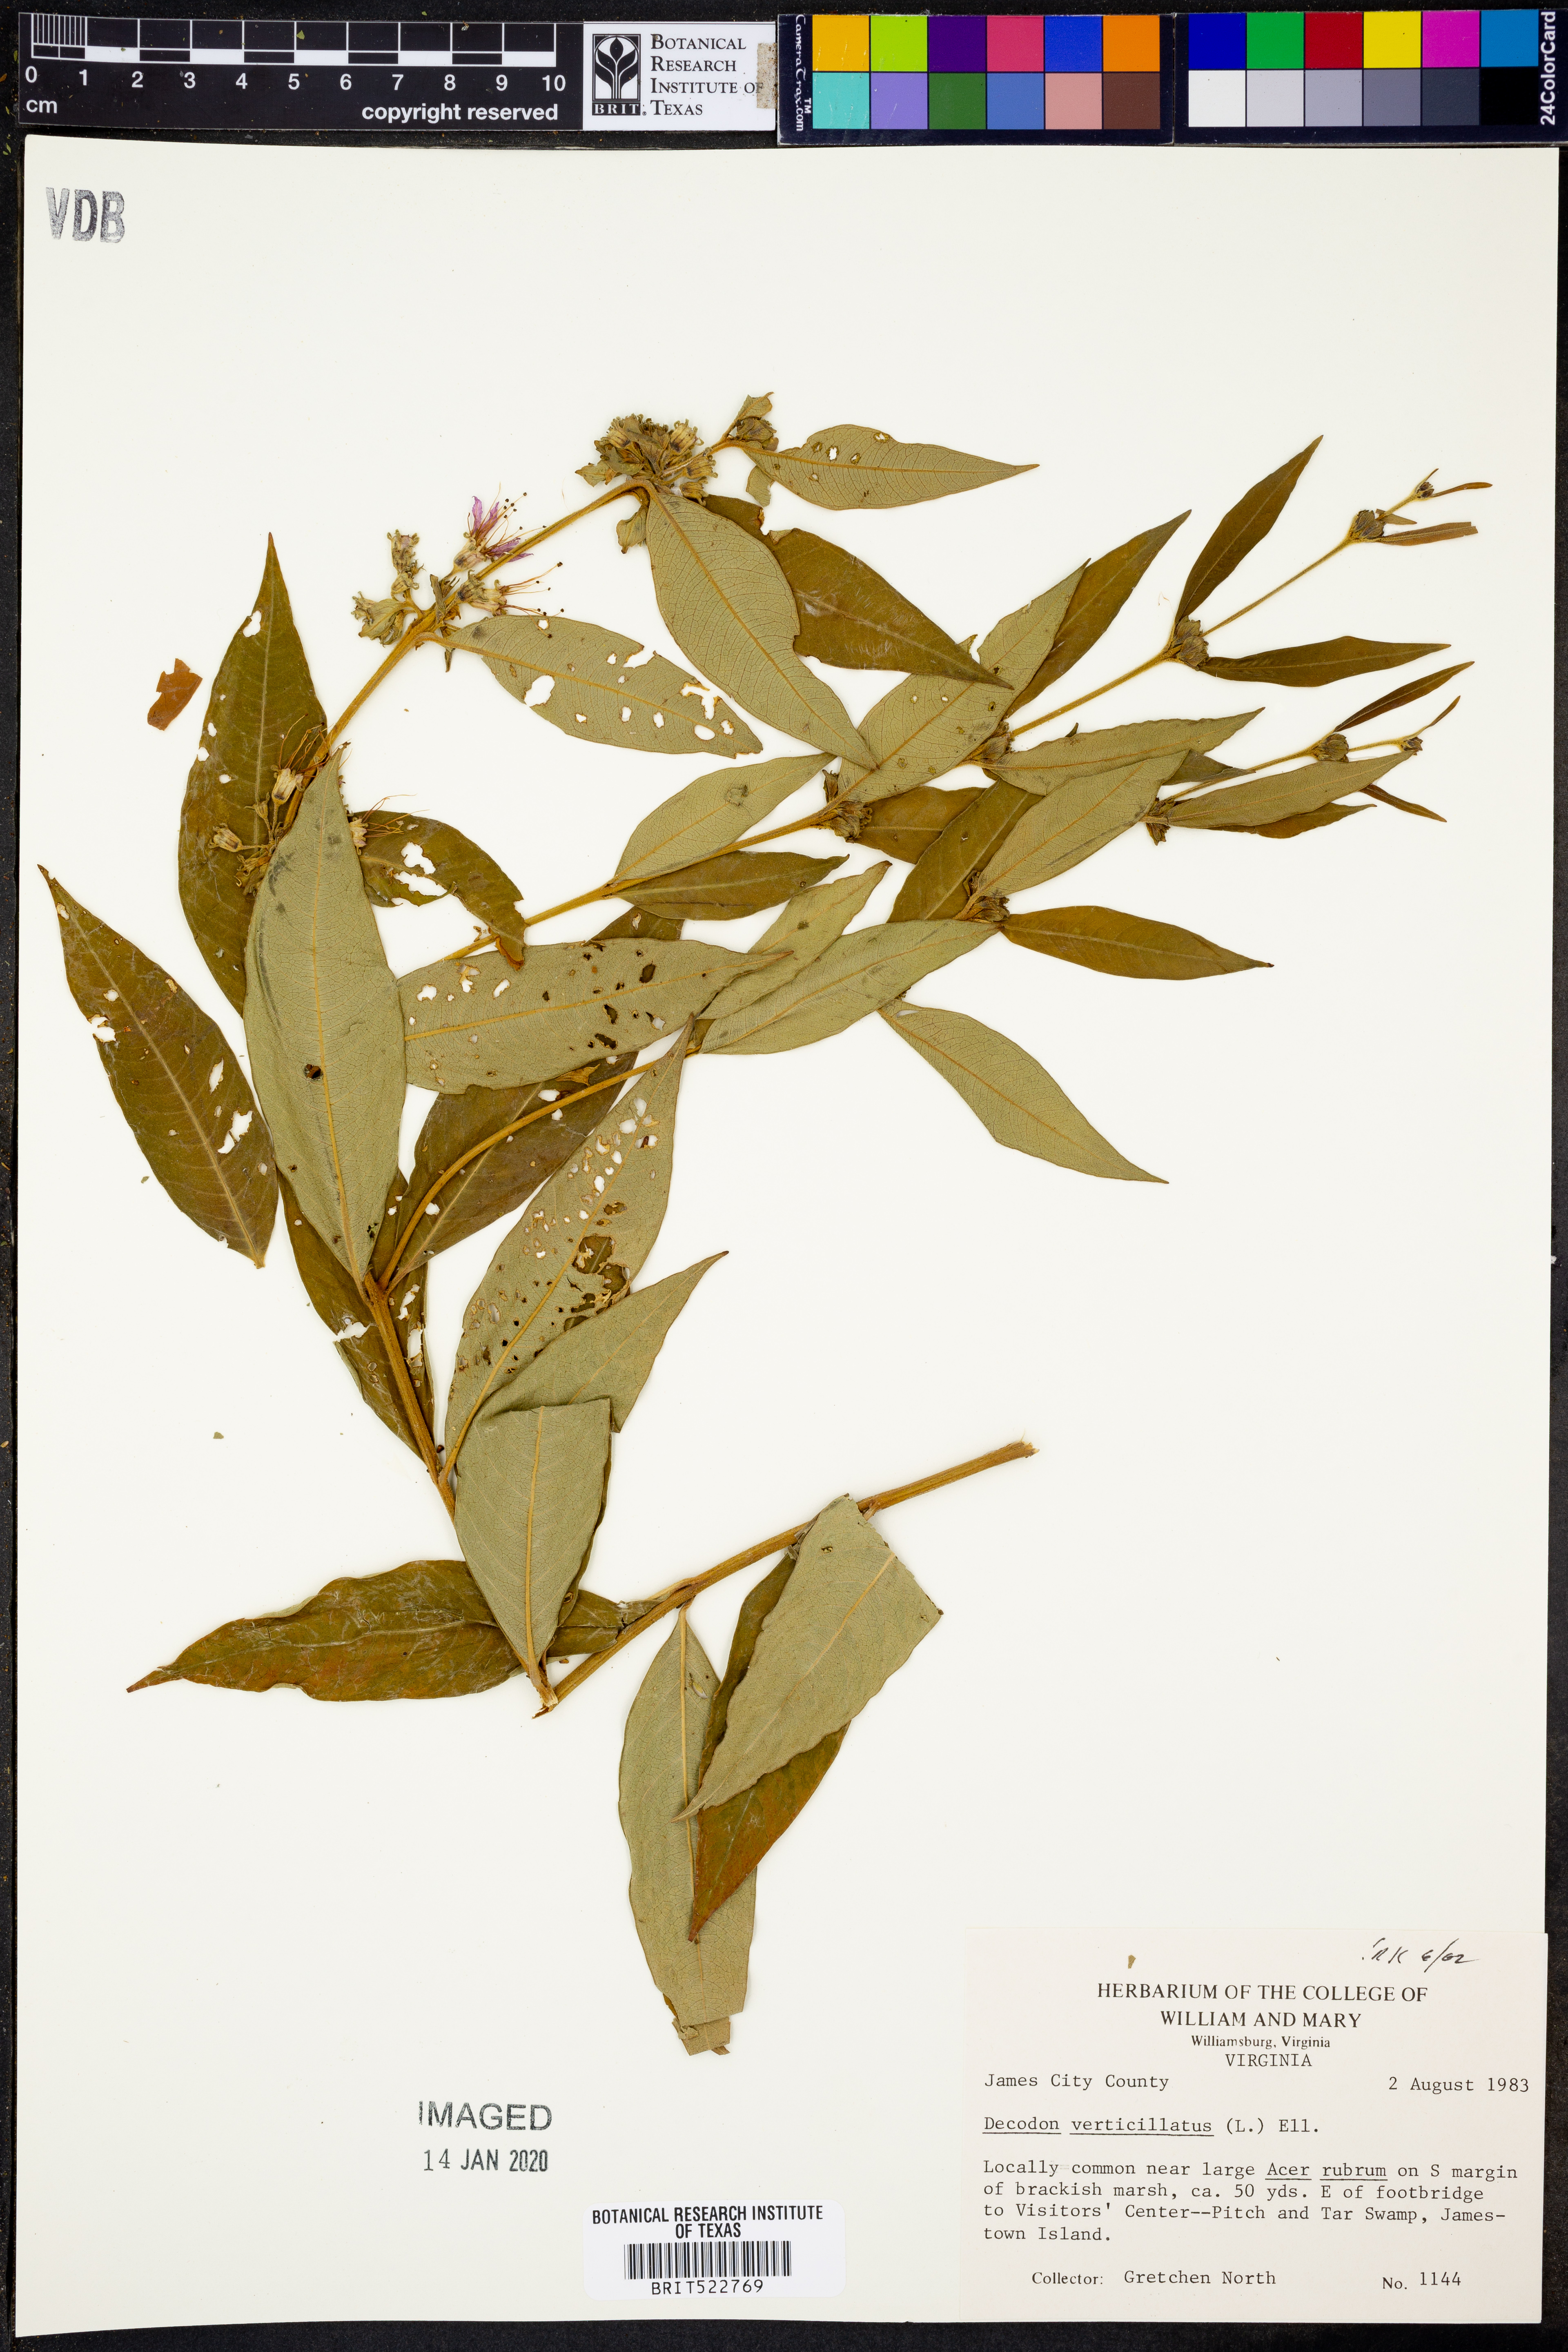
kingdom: Plantae
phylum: Tracheophyta
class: Magnoliopsida
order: Myrtales
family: Lythraceae
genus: Decodon
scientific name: Decodon verticillatus
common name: Hairy swamp loosestrife
